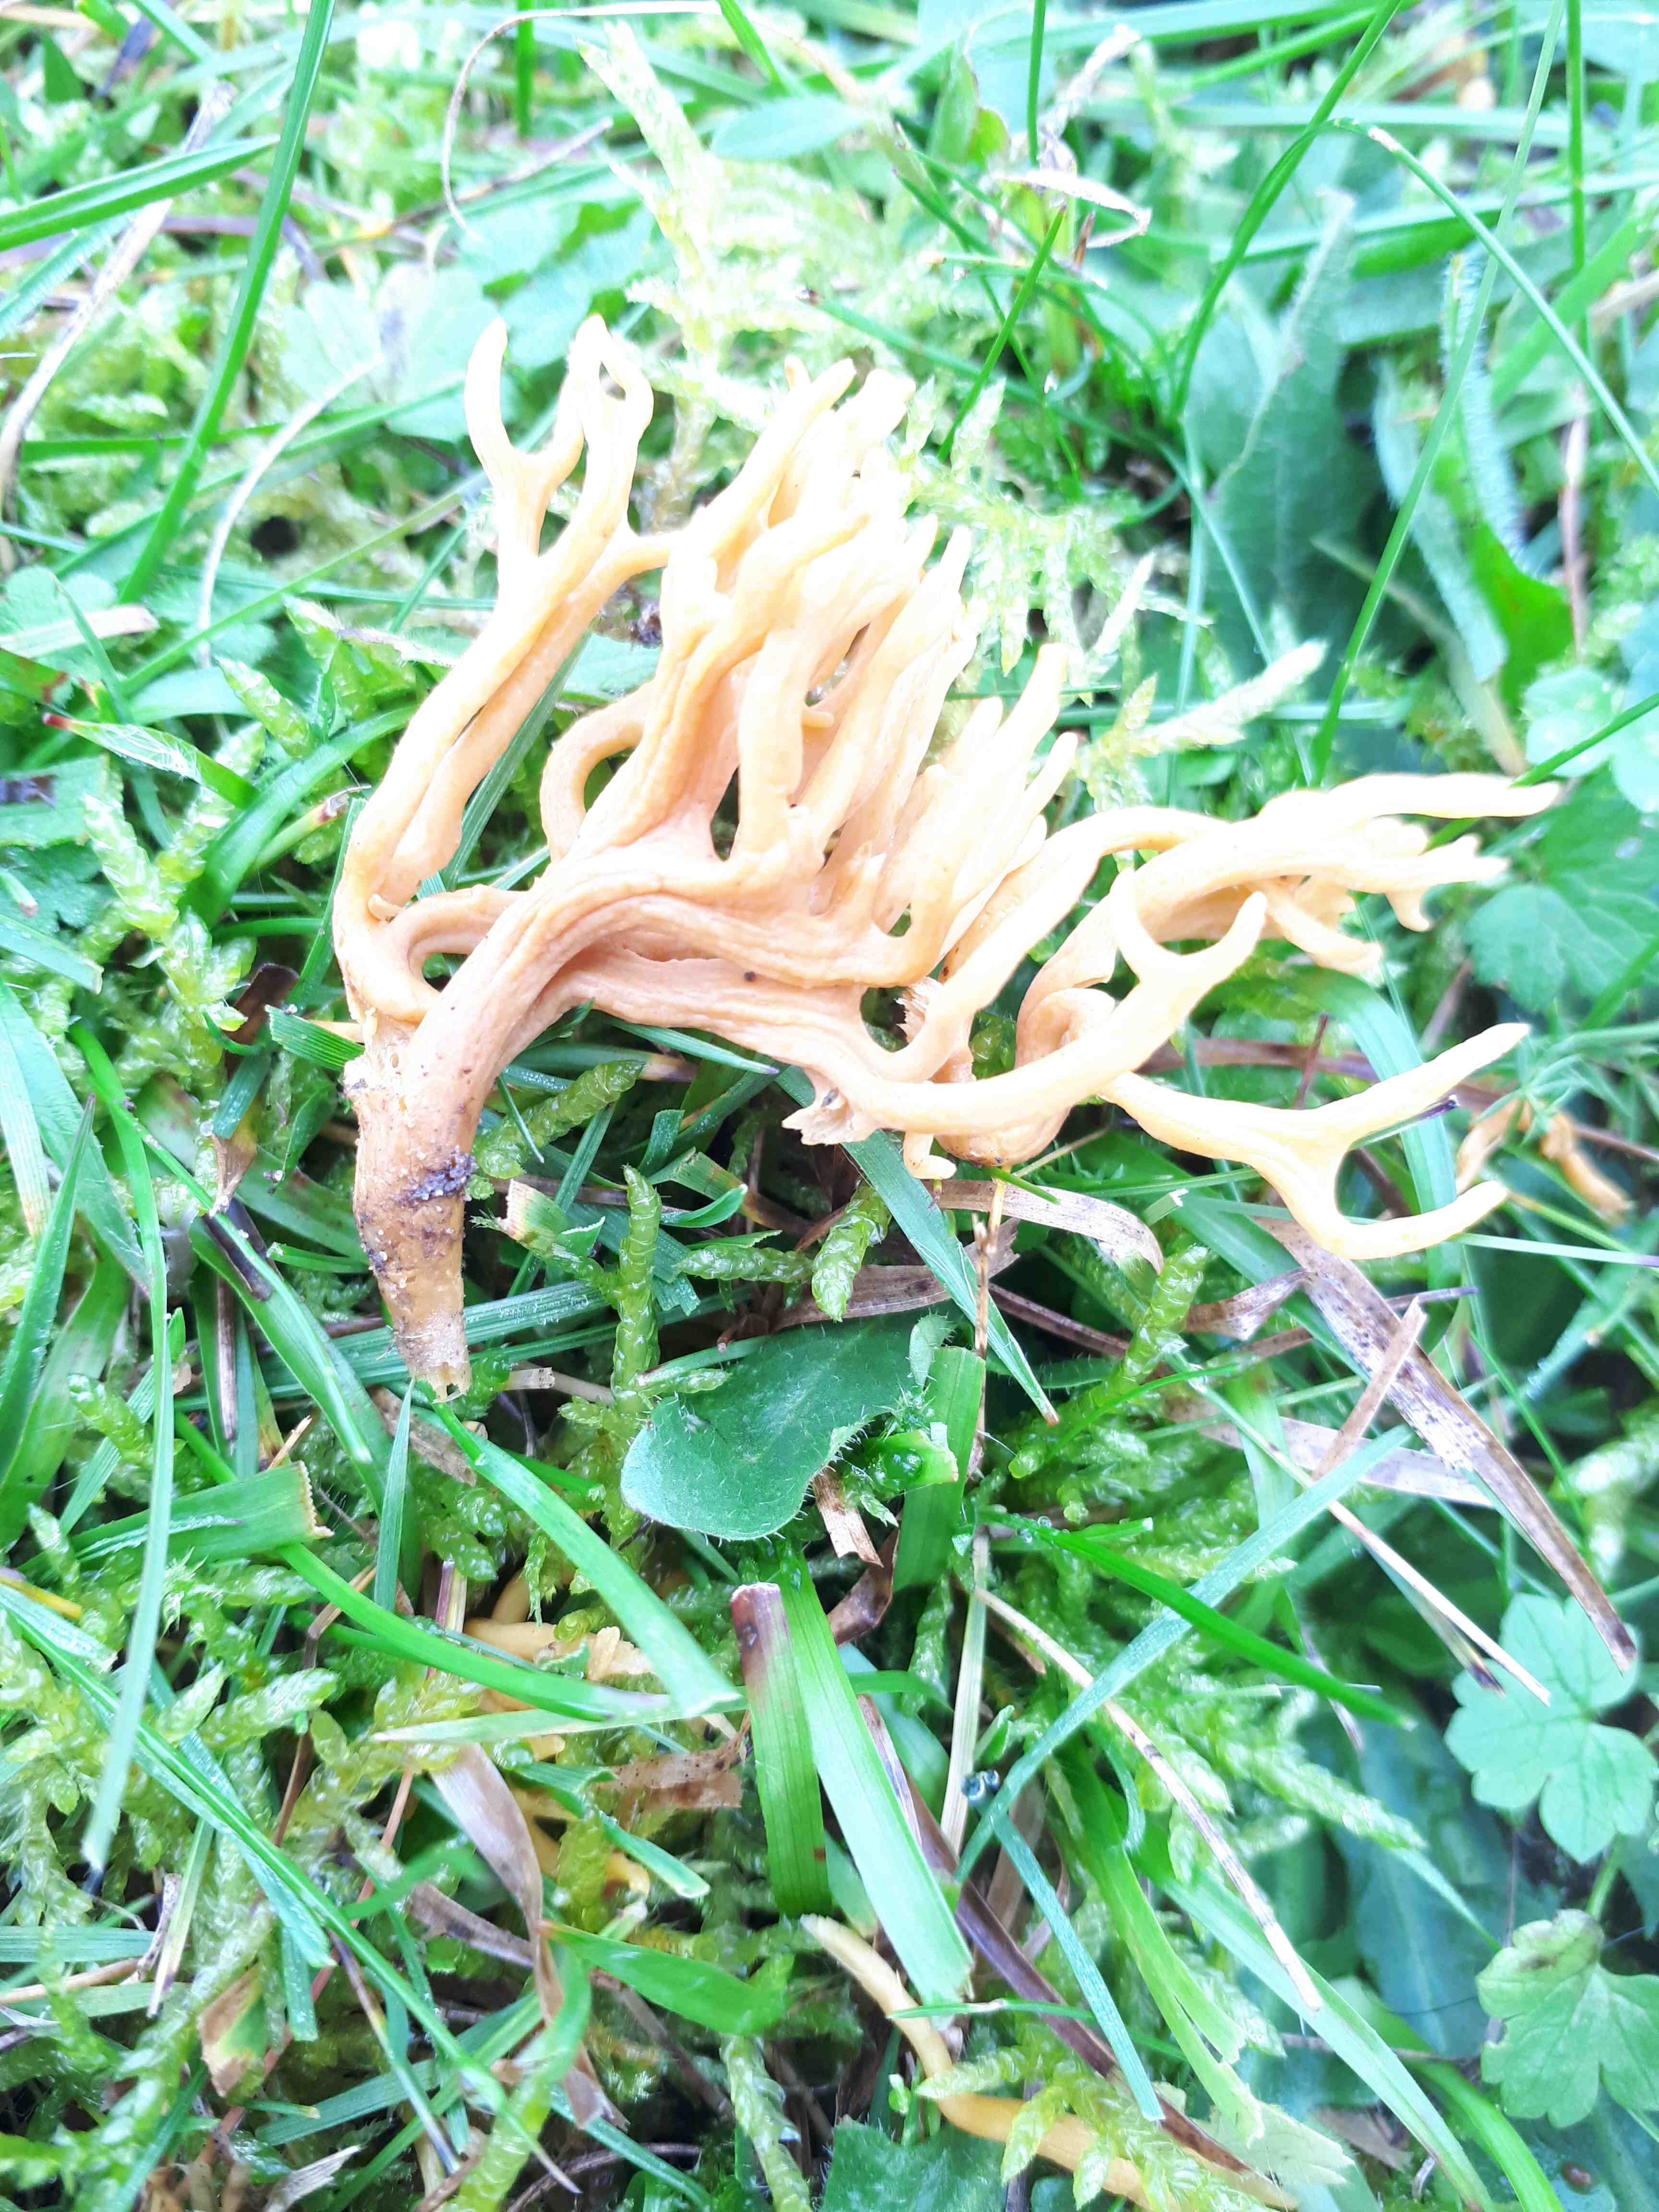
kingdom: Fungi
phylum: Basidiomycota
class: Agaricomycetes
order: Agaricales
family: Clavariaceae
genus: Clavulinopsis
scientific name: Clavulinopsis corniculata
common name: eng-køllesvamp
